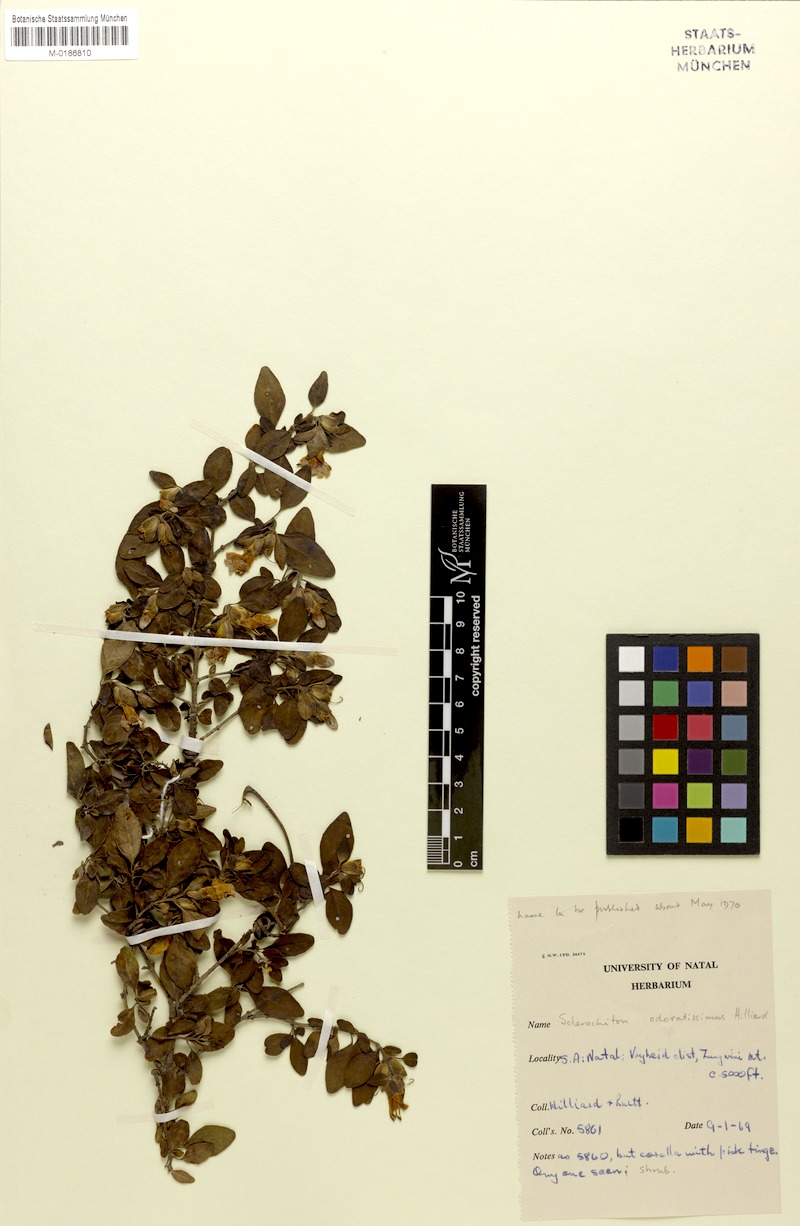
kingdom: Plantae
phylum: Tracheophyta
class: Magnoliopsida
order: Lamiales
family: Acanthaceae
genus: Sclerochiton
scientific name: Sclerochiton odoratissimus
